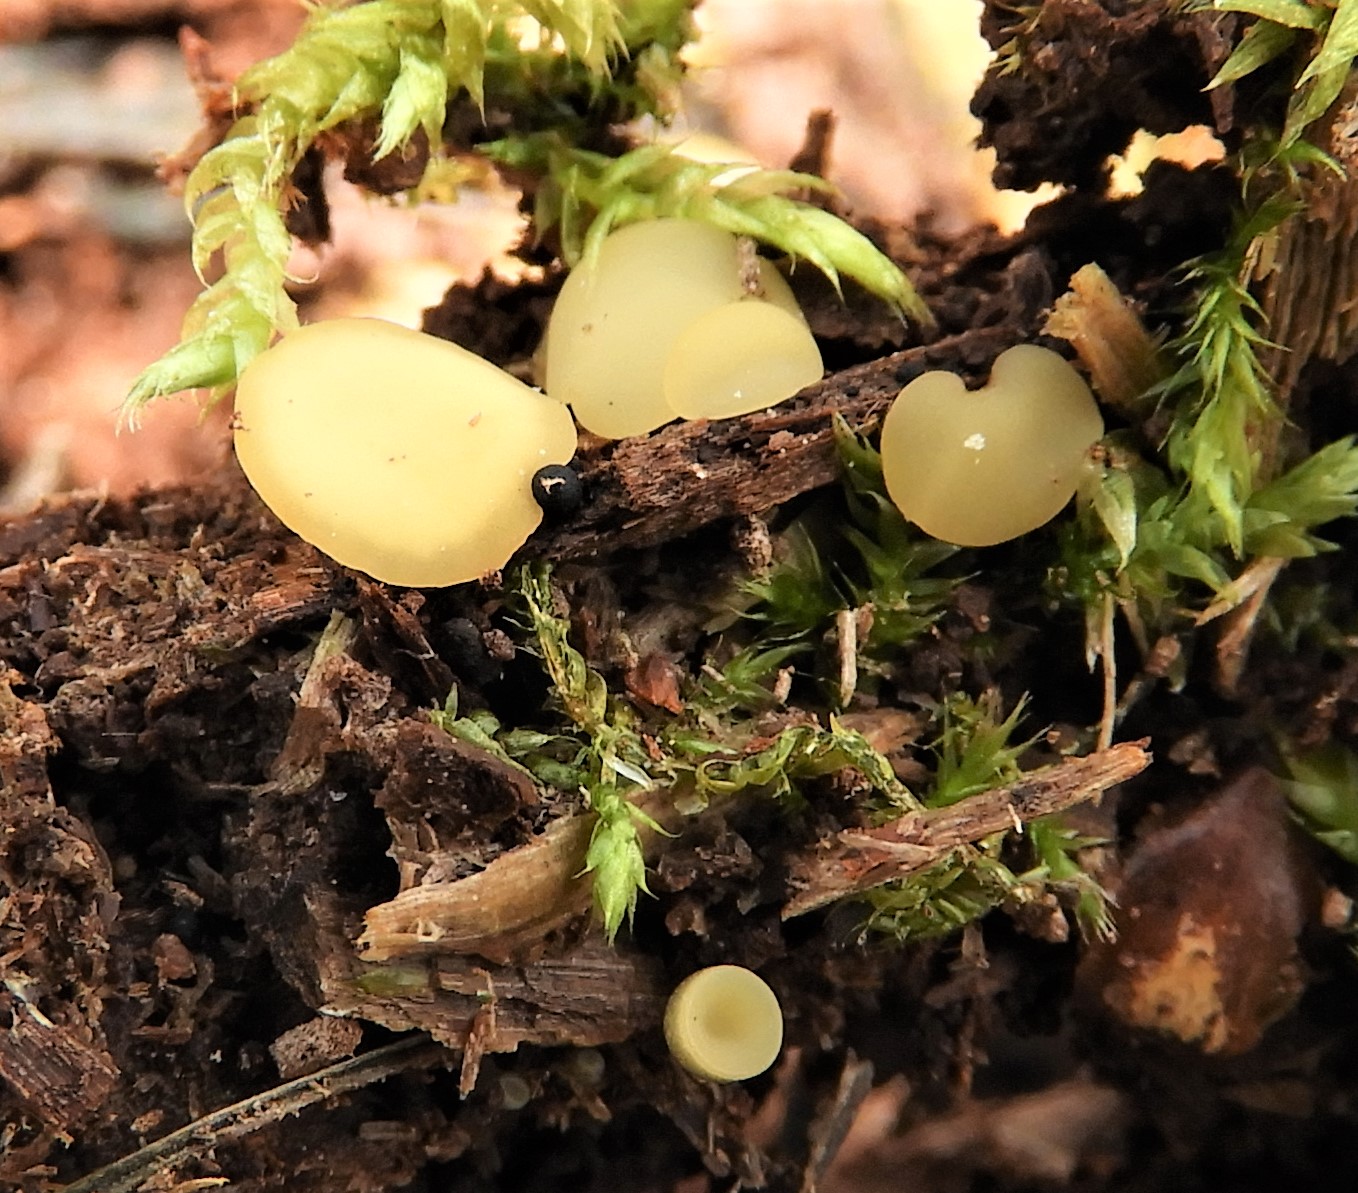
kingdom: Fungi
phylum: Ascomycota
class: Leotiomycetes
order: Helotiales
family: Helotiaceae
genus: Hymenoscyphus
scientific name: Hymenoscyphus
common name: stilkskive
